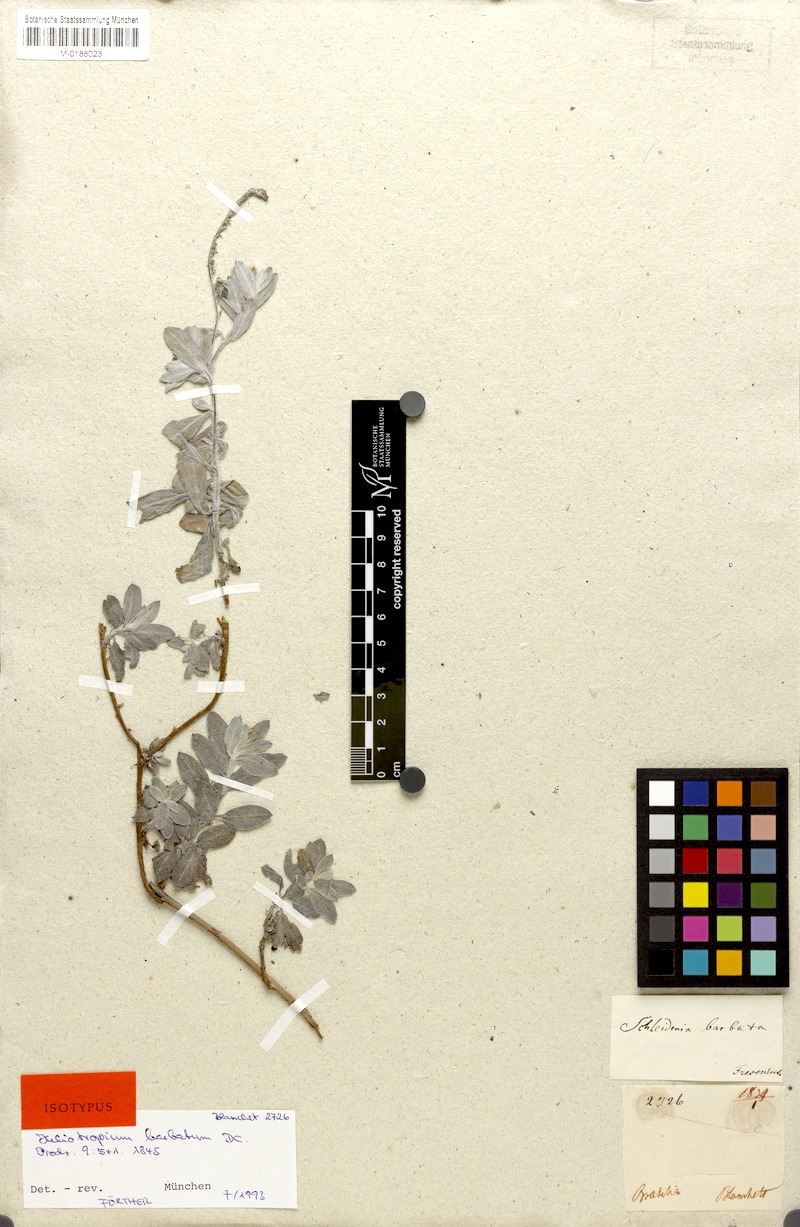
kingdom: Plantae
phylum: Tracheophyta
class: Magnoliopsida
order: Boraginales
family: Heliotropiaceae
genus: Euploca
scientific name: Euploca procumbens
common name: Fourspike heliotrope
